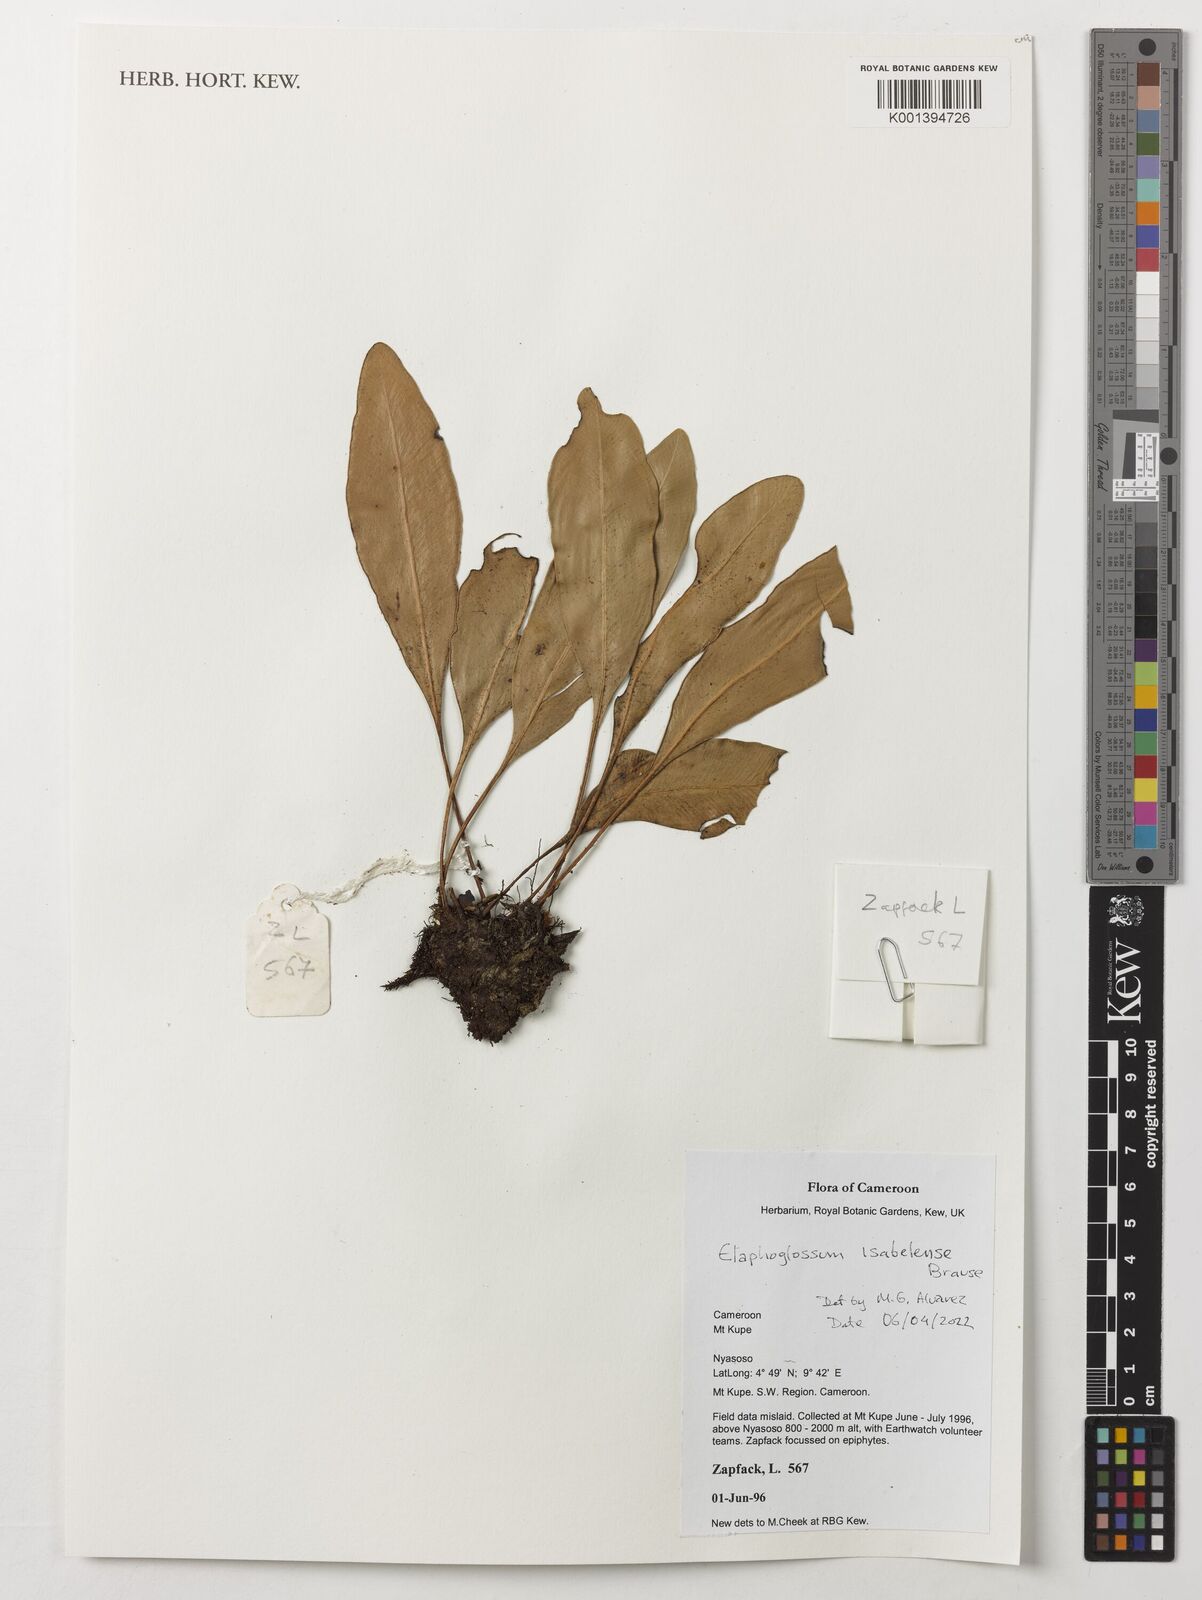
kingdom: Plantae
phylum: Tracheophyta
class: Polypodiopsida
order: Polypodiales
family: Dryopteridaceae
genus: Elaphoglossum
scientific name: Elaphoglossum isabelense
